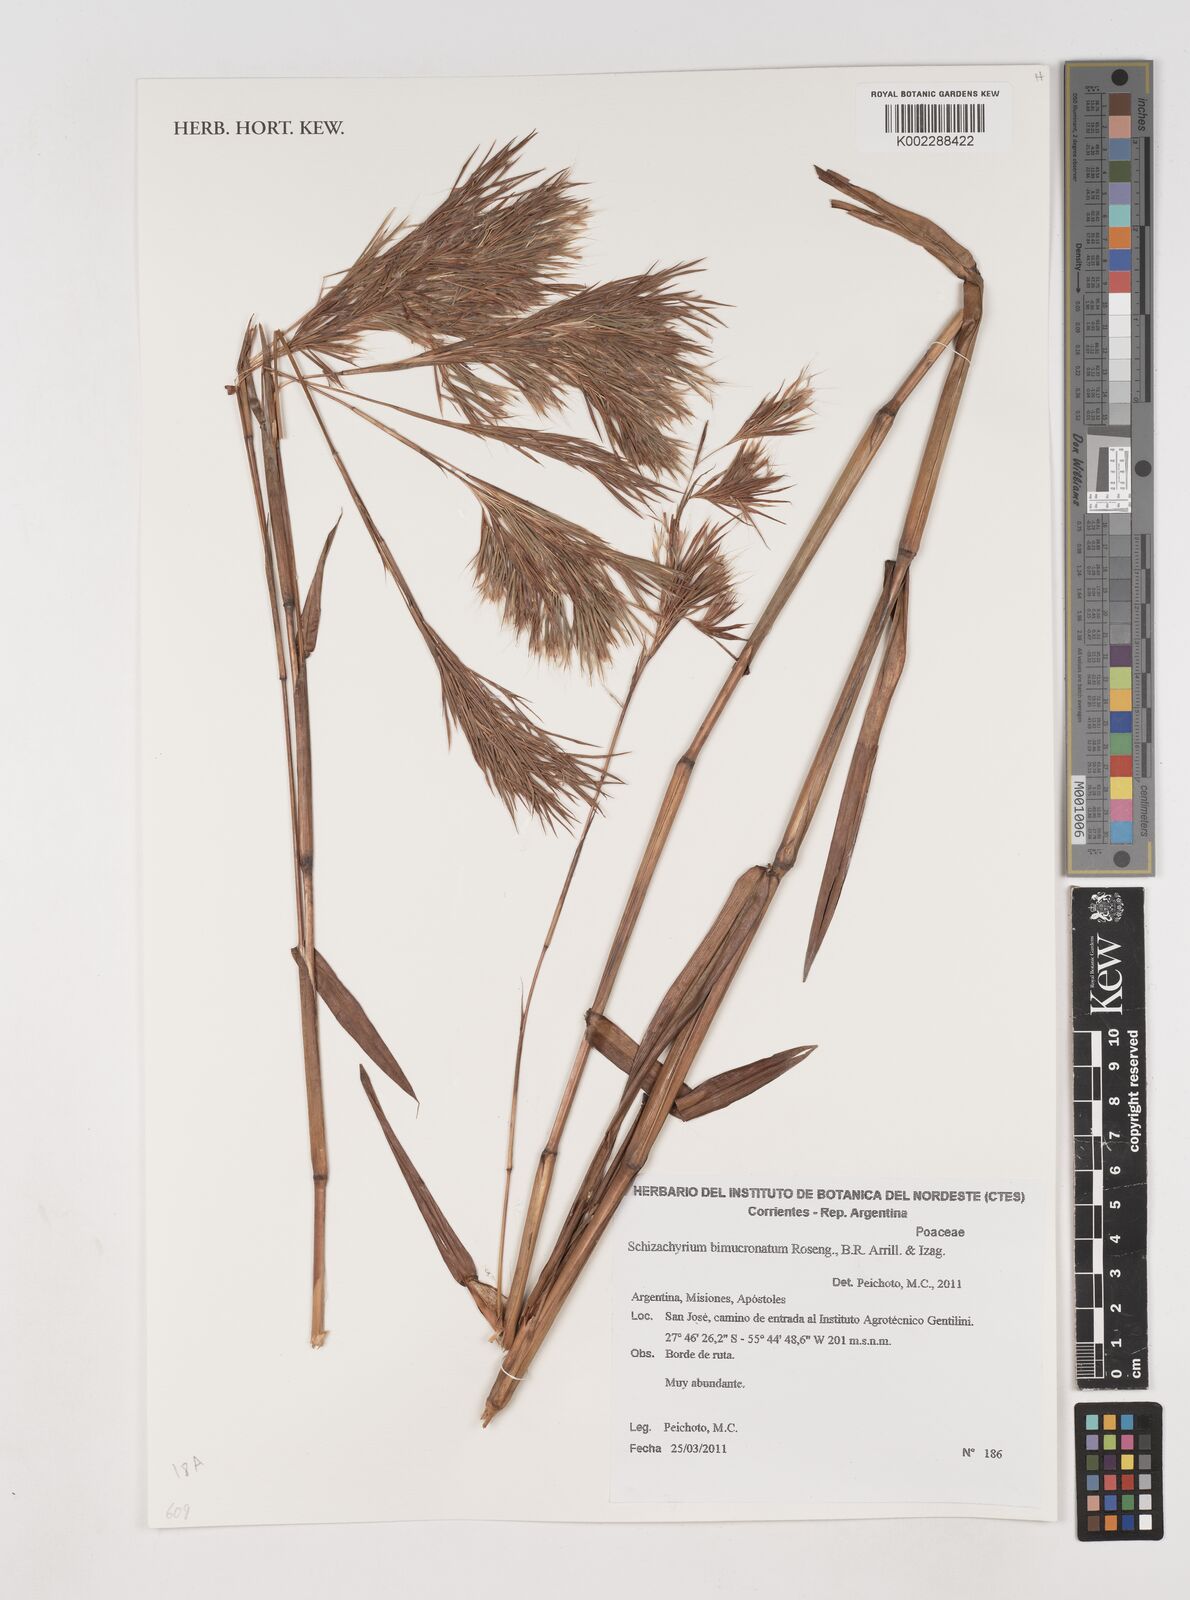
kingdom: Plantae
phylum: Tracheophyta
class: Liliopsida
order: Poales
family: Poaceae
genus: Schizachyrium
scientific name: Schizachyrium condensatum
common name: Bush beardgrass
